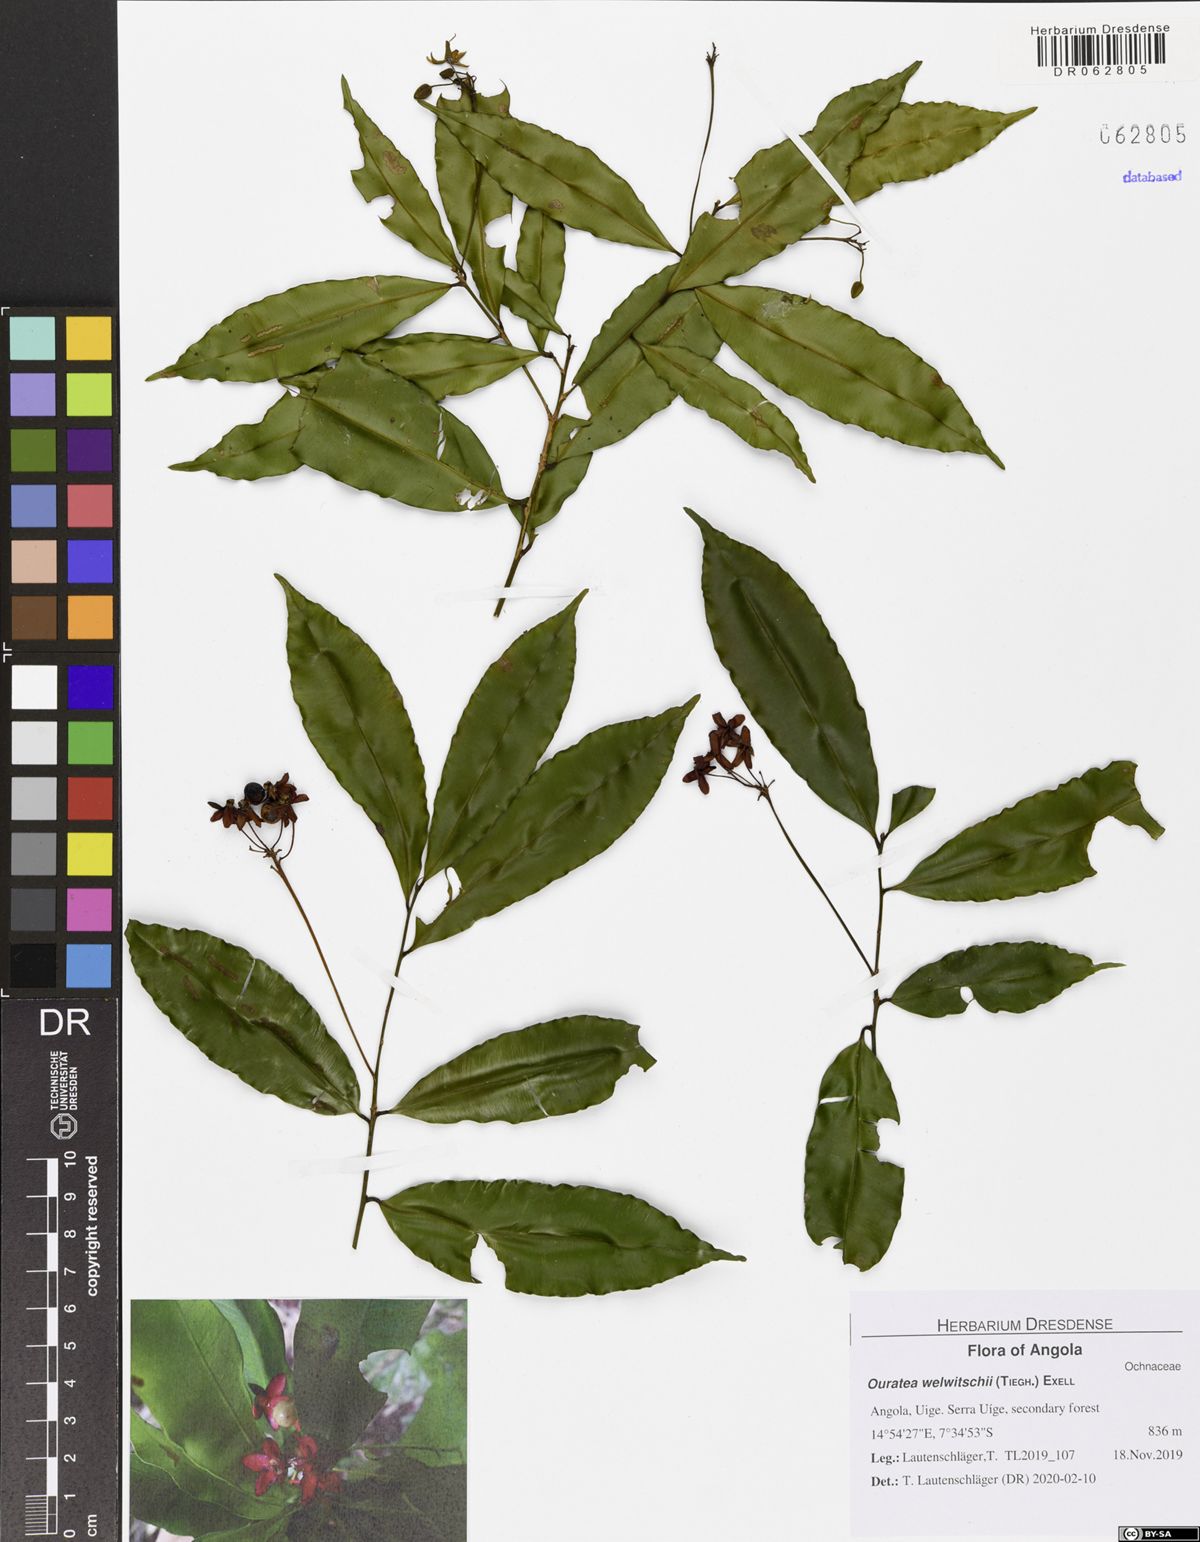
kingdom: Plantae
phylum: Tracheophyta
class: Magnoliopsida
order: Malpighiales
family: Ochnaceae
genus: Rhabdophyllum
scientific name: Rhabdophyllum welwitschii
